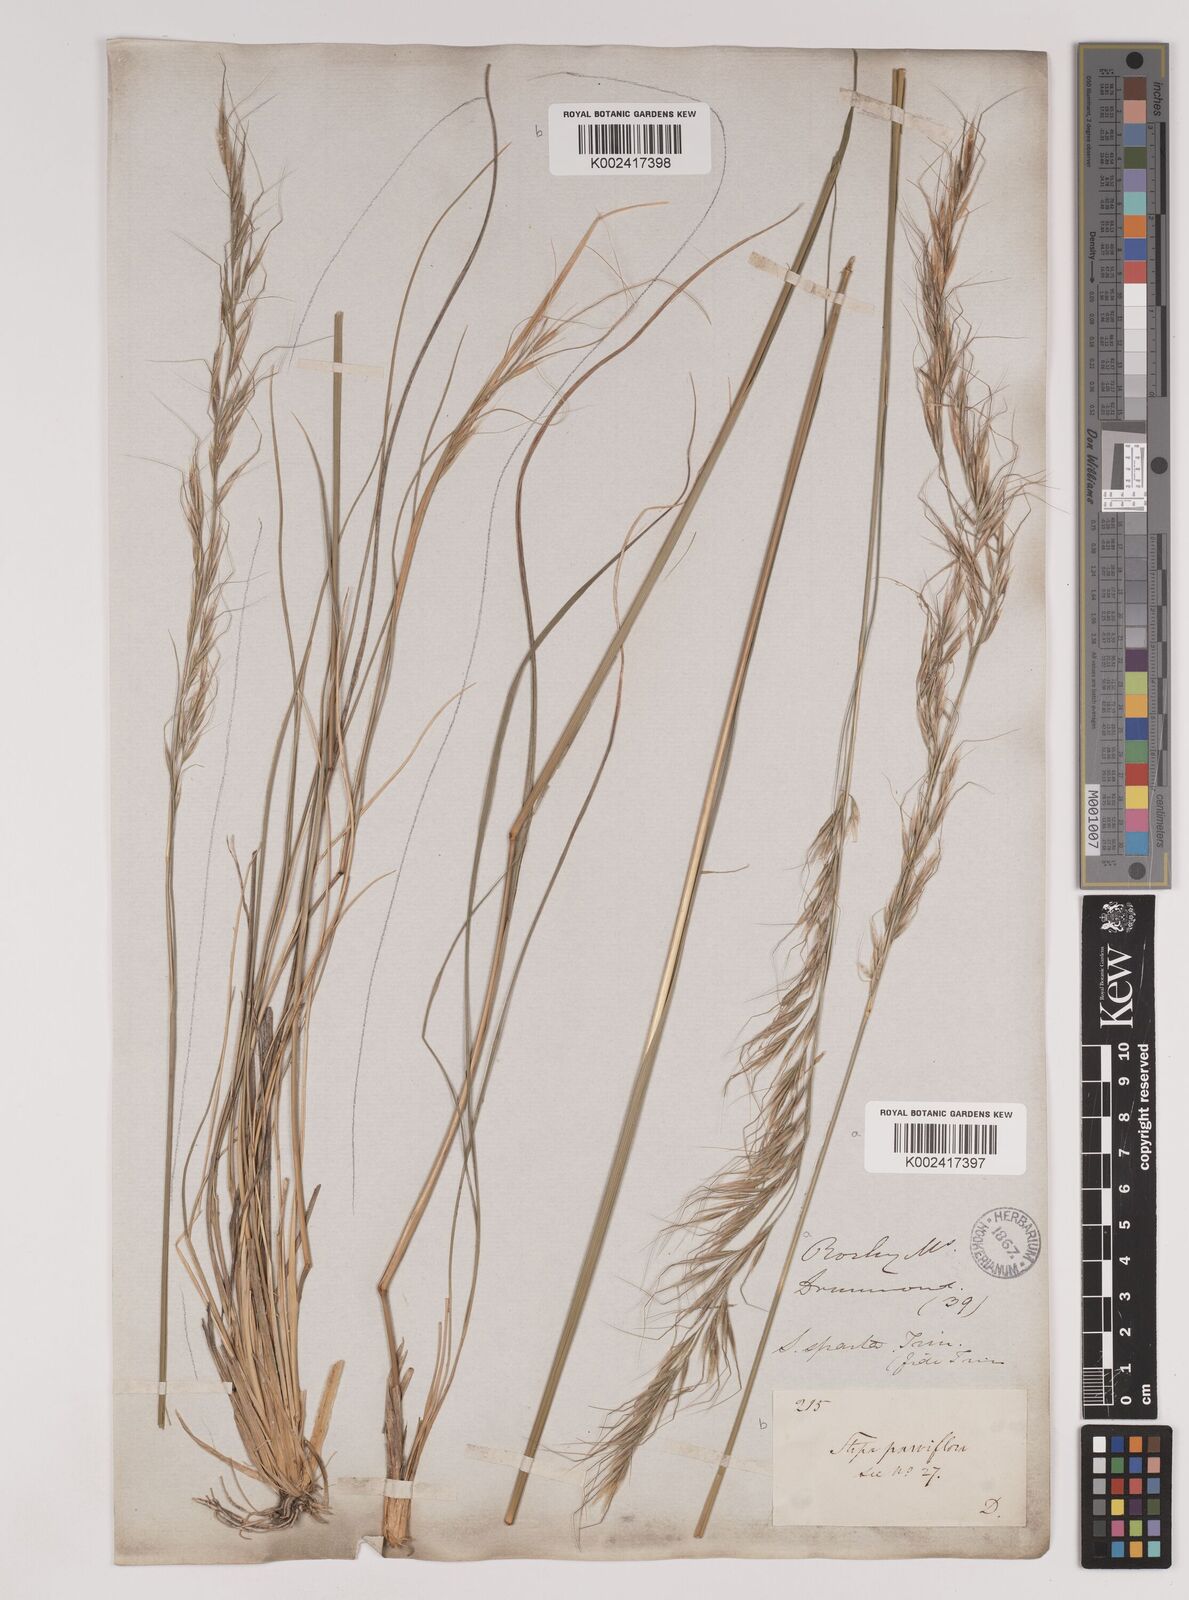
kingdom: Plantae
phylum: Tracheophyta
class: Liliopsida
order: Poales
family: Poaceae
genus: Nassella
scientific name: Nassella viridula
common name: Green needlegrass
